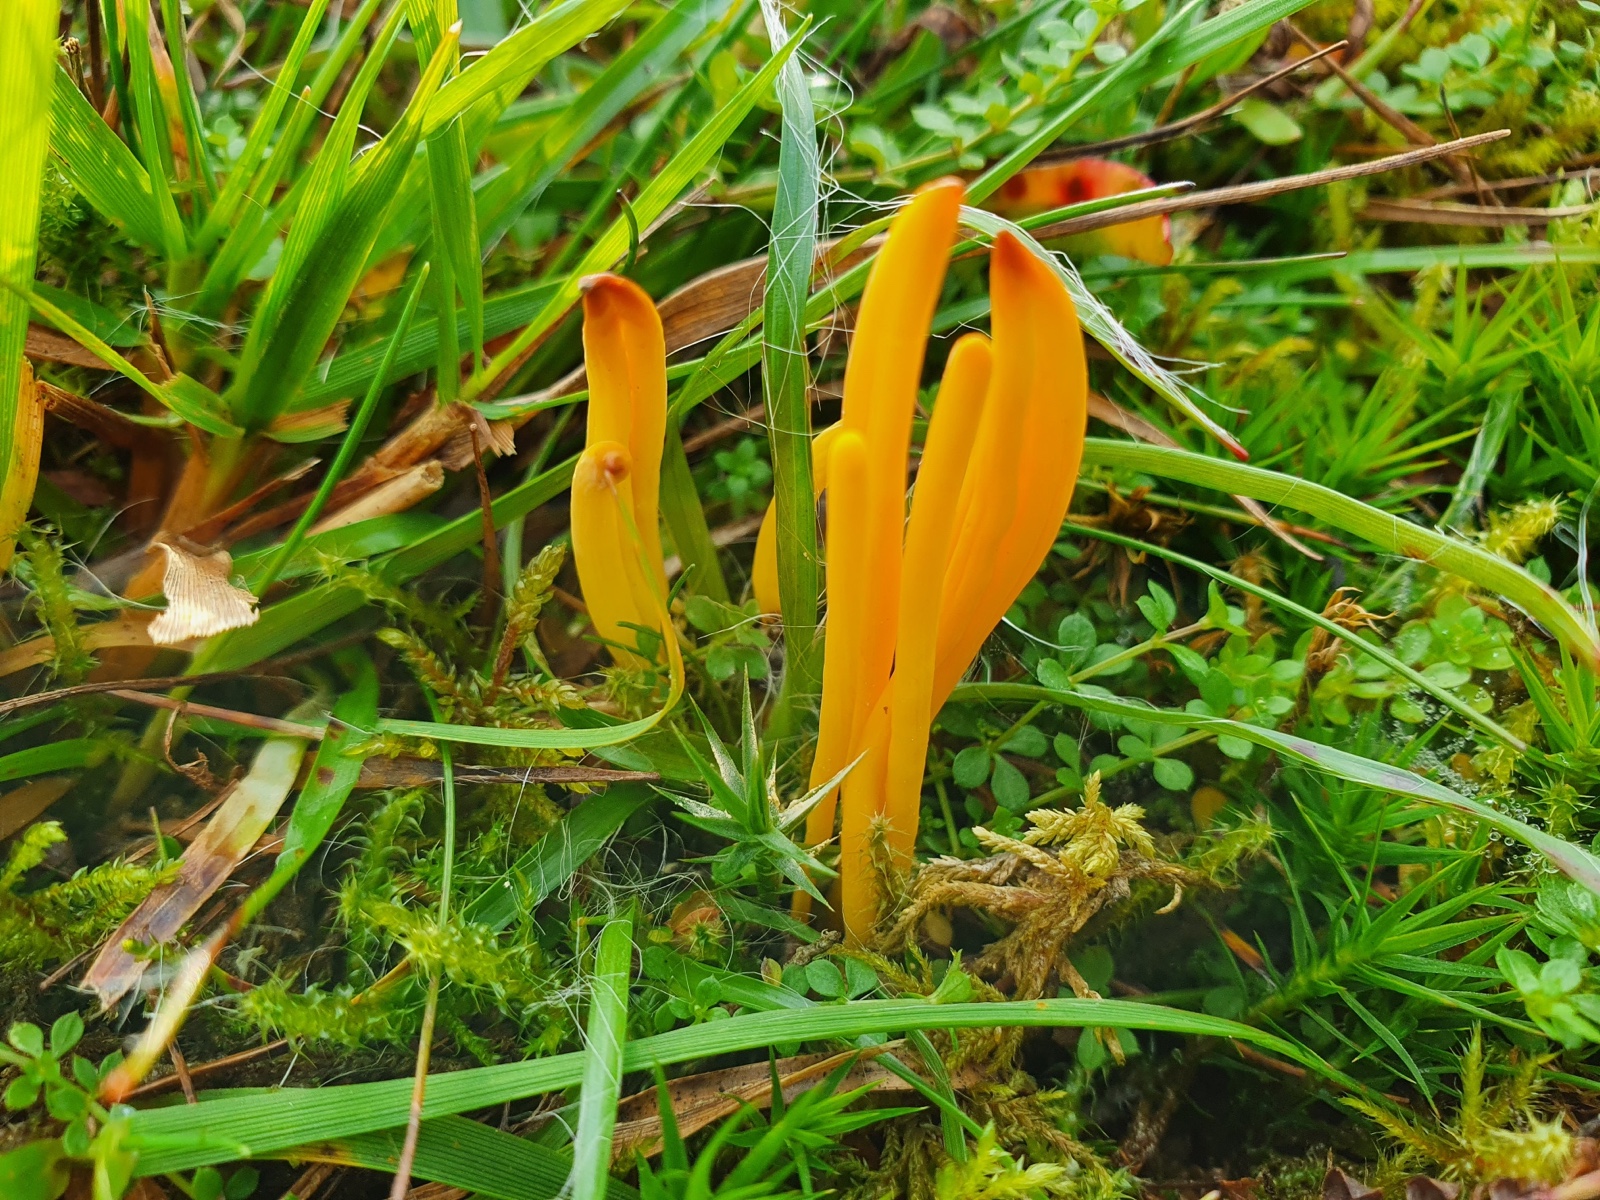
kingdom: Fungi
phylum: Basidiomycota
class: Agaricomycetes
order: Agaricales
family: Clavariaceae
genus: Clavulinopsis
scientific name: Clavulinopsis helvola
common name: orangegul køllesvamp
